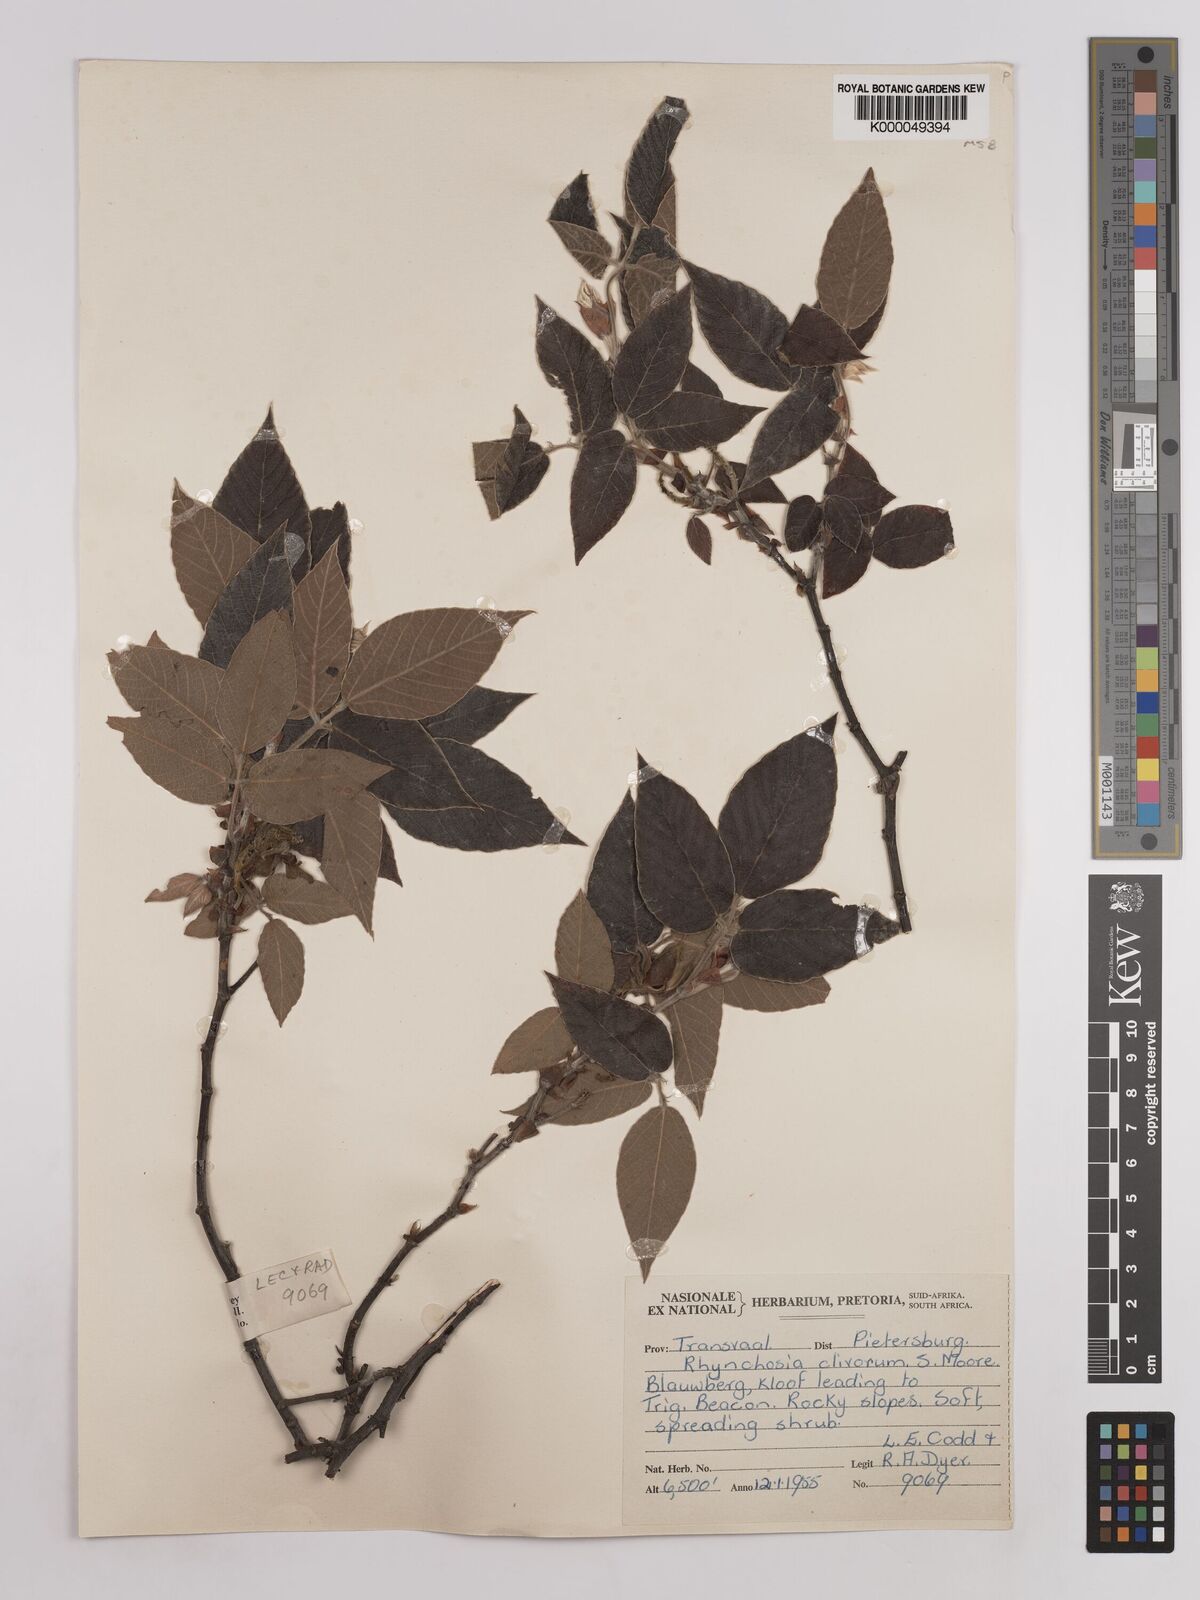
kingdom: Plantae
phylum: Tracheophyta
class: Magnoliopsida
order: Fabales
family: Fabaceae
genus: Rhynchosia
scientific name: Rhynchosia clivorum
